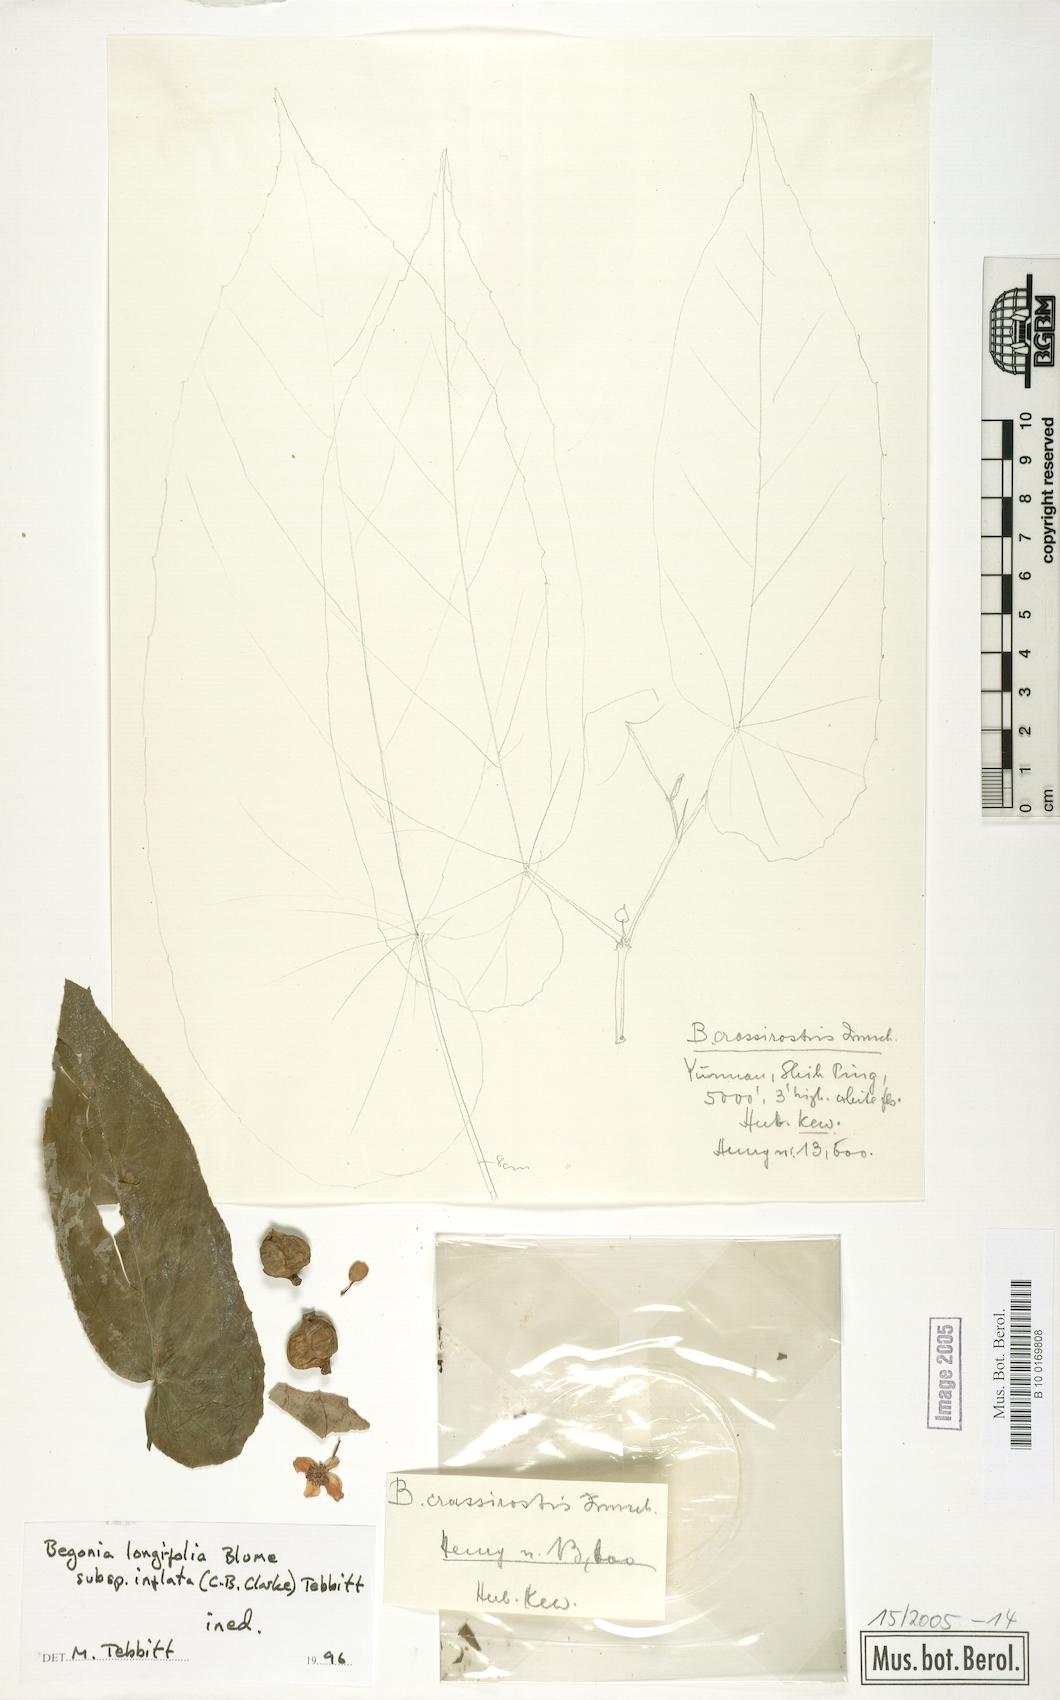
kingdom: Plantae
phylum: Tracheophyta
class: Magnoliopsida
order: Cucurbitales
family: Begoniaceae
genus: Begonia
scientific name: Begonia longifolia
